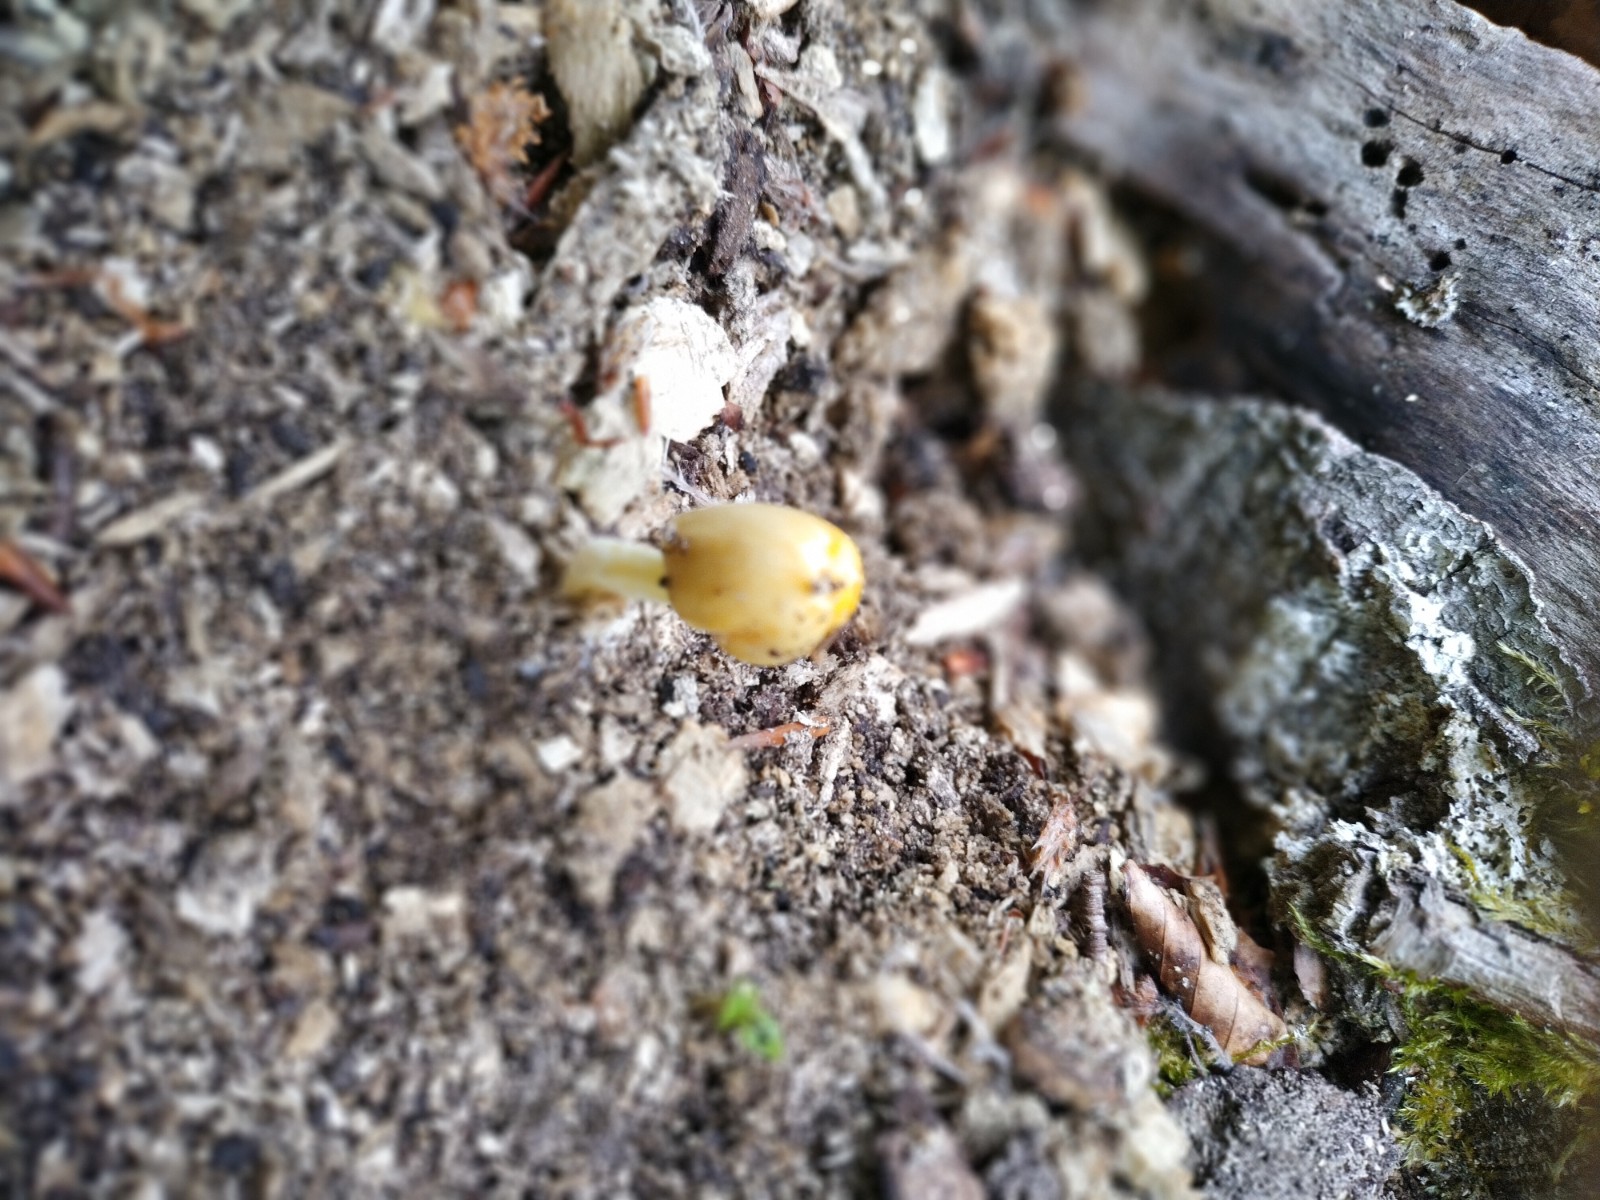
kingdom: Fungi
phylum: Basidiomycota
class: Agaricomycetes
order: Agaricales
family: Bolbitiaceae
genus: Bolbitius
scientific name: Bolbitius titubans
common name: almindelig gulhat
